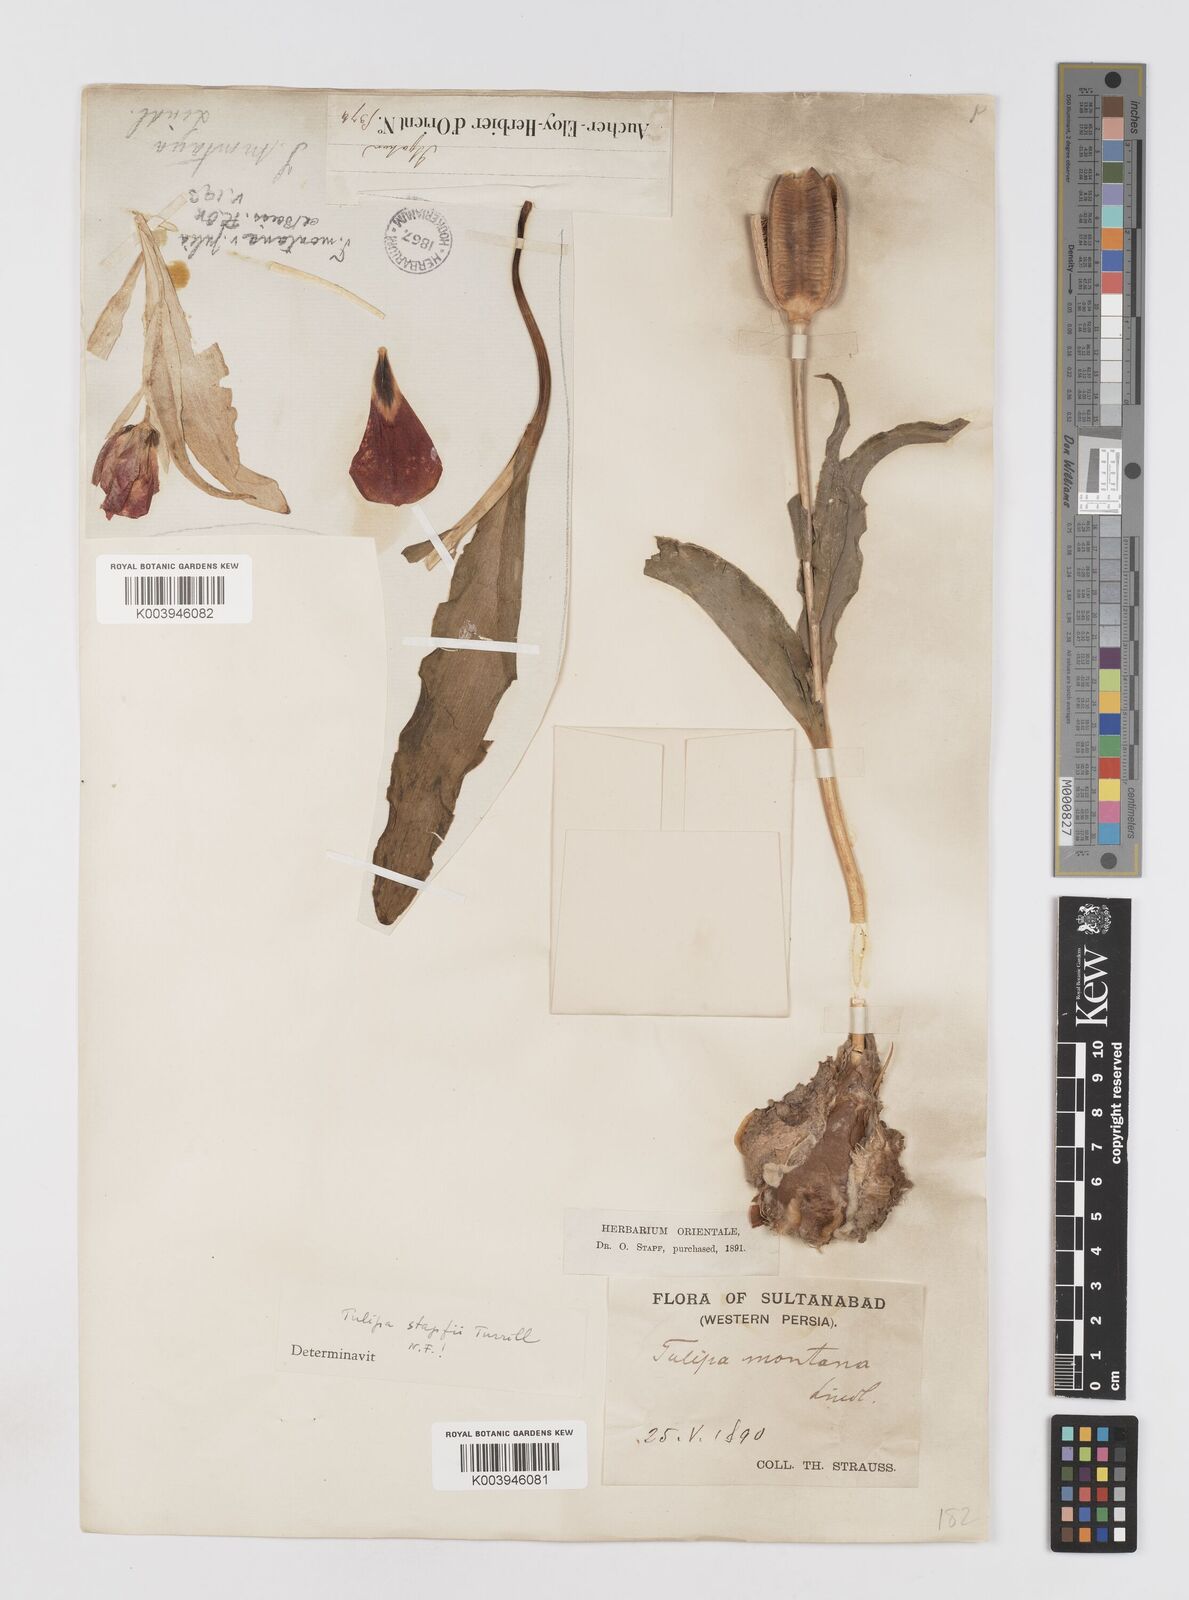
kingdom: Plantae
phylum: Tracheophyta
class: Liliopsida
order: Liliales
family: Liliaceae
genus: Tulipa
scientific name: Tulipa systola
